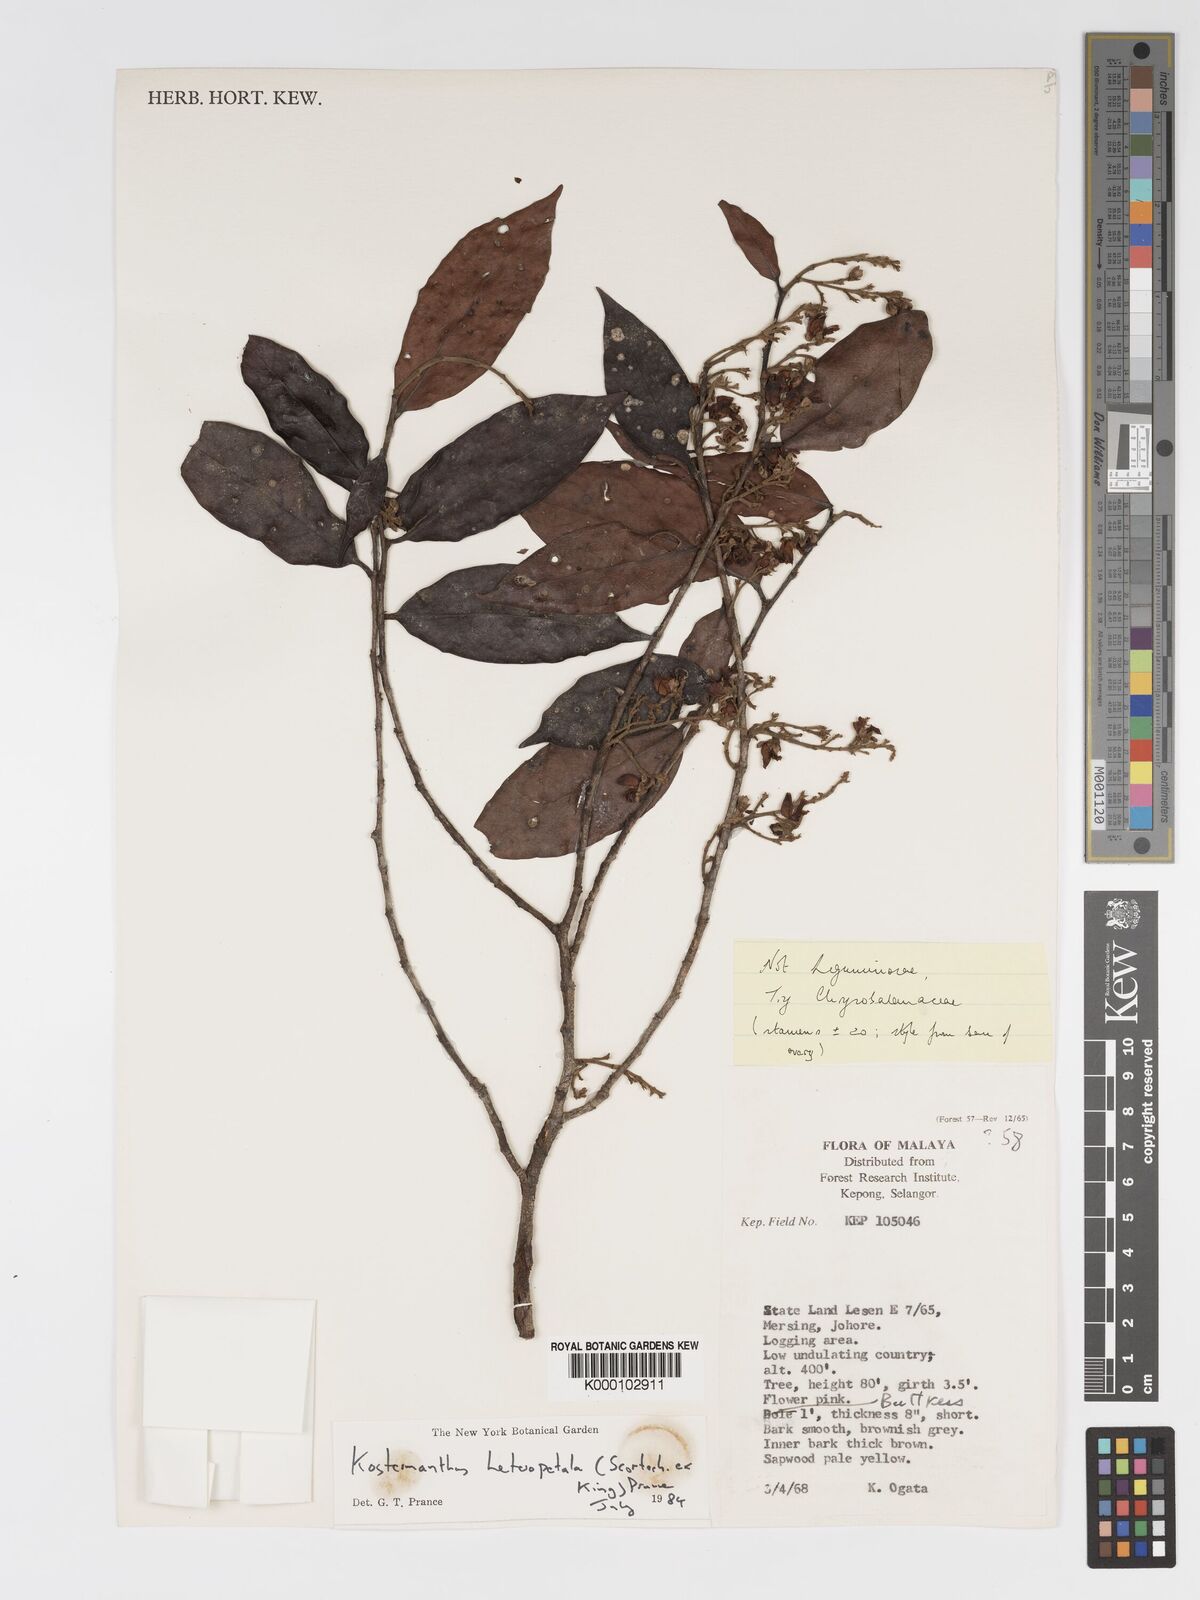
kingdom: Plantae
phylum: Tracheophyta
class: Magnoliopsida
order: Malpighiales
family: Chrysobalanaceae
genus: Kostermanthus
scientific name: Kostermanthus heteropetalus
